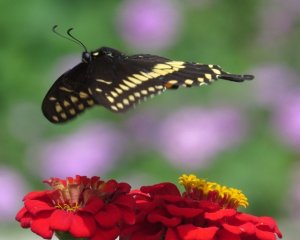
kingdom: Animalia
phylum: Arthropoda
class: Insecta
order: Lepidoptera
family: Papilionidae
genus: Papilio
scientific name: Papilio polyxenes
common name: Black Swallowtail
